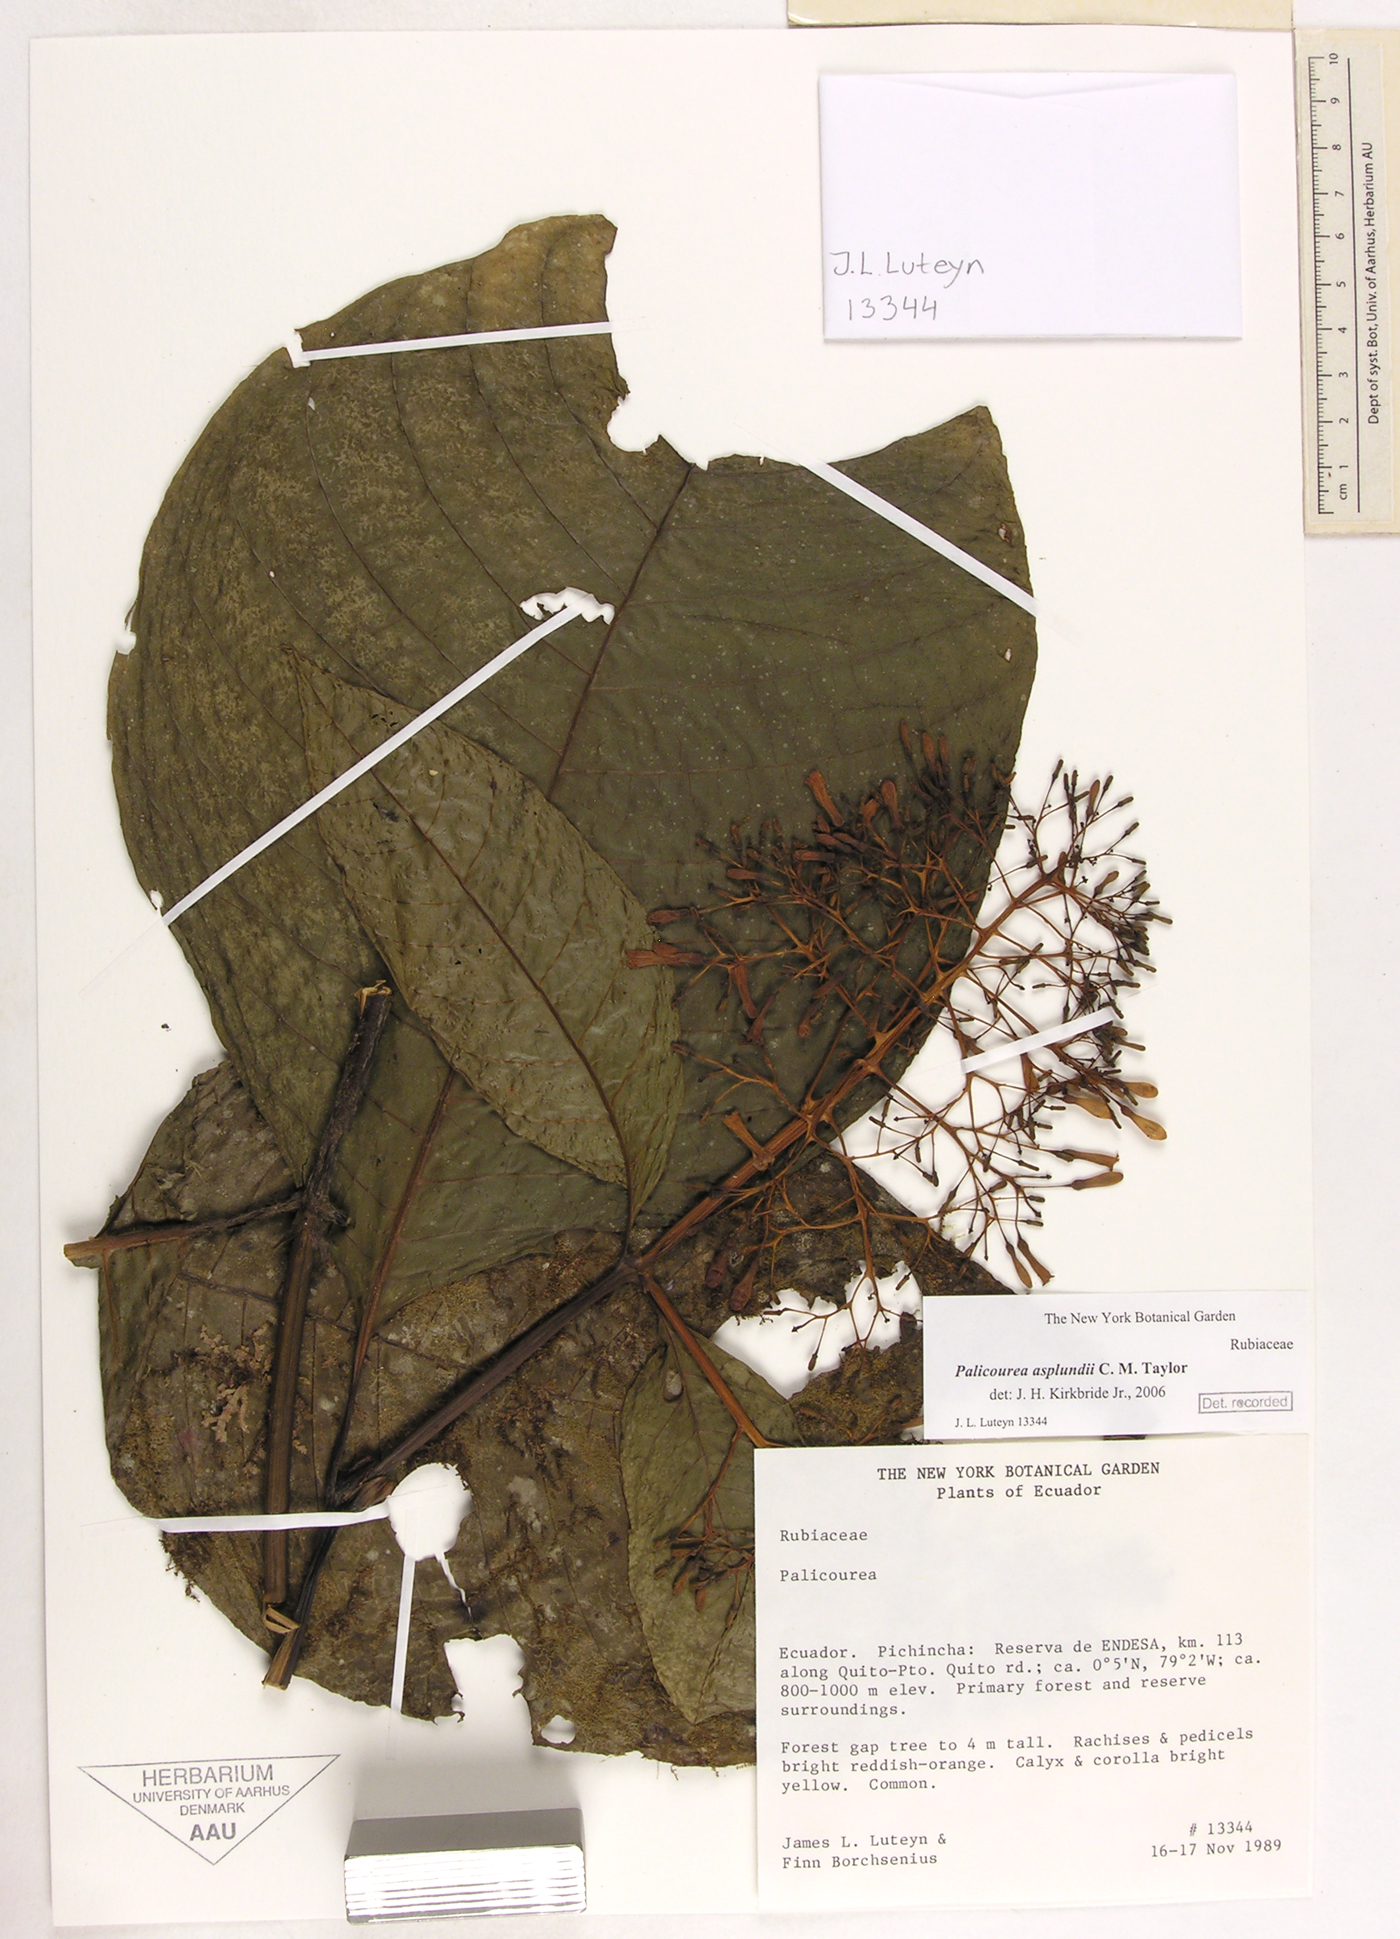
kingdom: Plantae
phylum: Tracheophyta
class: Magnoliopsida
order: Gentianales
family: Rubiaceae
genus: Palicourea
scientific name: Palicourea asplundii
